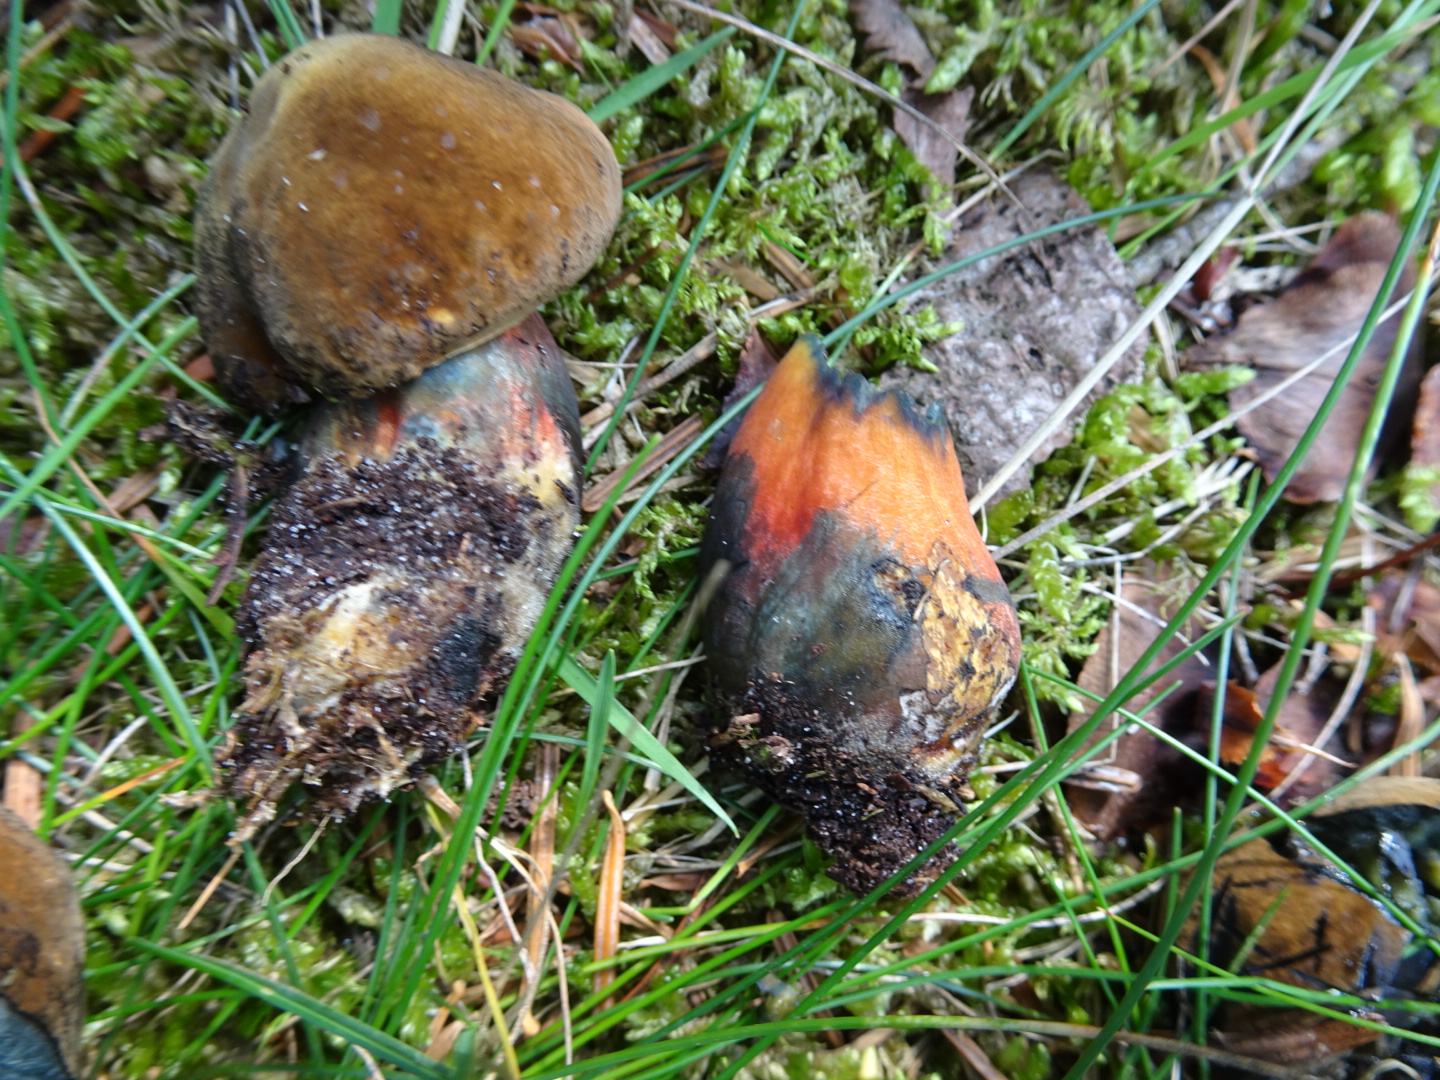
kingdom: Fungi
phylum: Basidiomycota
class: Agaricomycetes
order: Boletales
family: Boletaceae
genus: Neoboletus
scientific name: Neoboletus erythropus
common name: punktstokket indigorørhat
